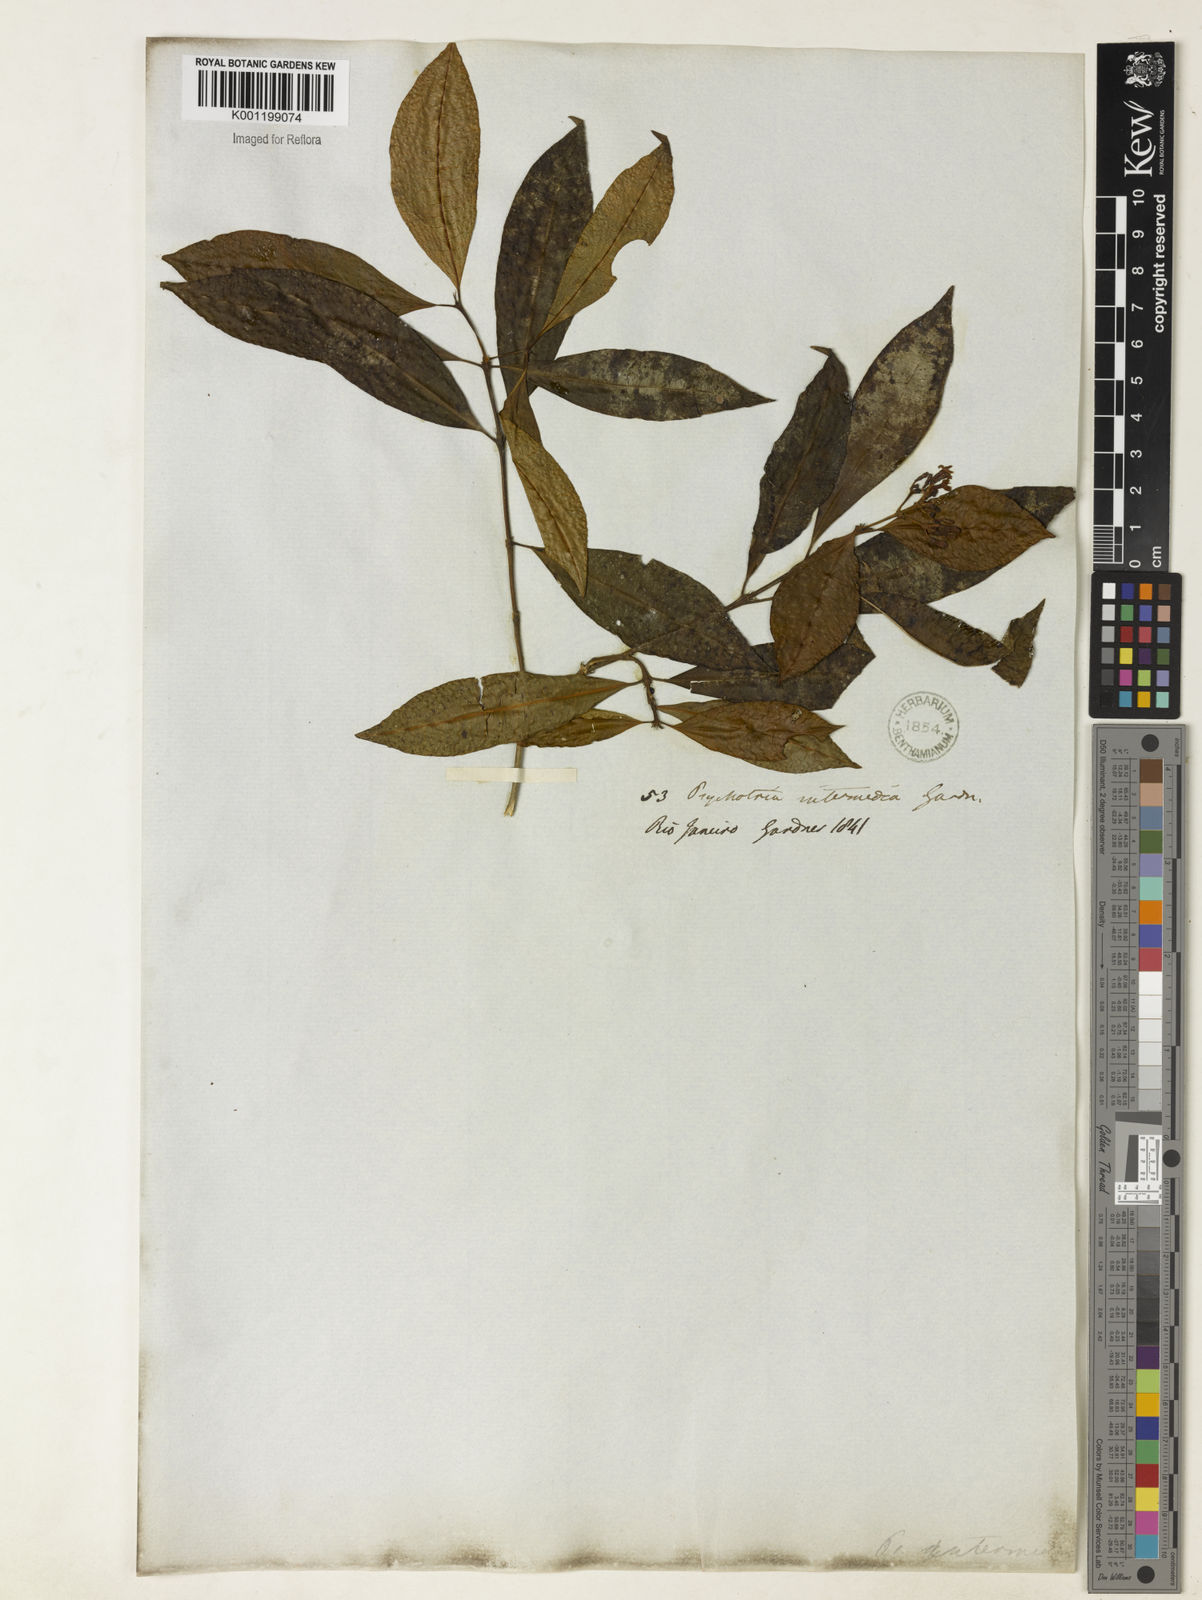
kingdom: Plantae
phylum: Tracheophyta
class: Magnoliopsida
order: Gentianales
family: Rubiaceae
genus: Psychotria
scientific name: Psychotria intermedia
